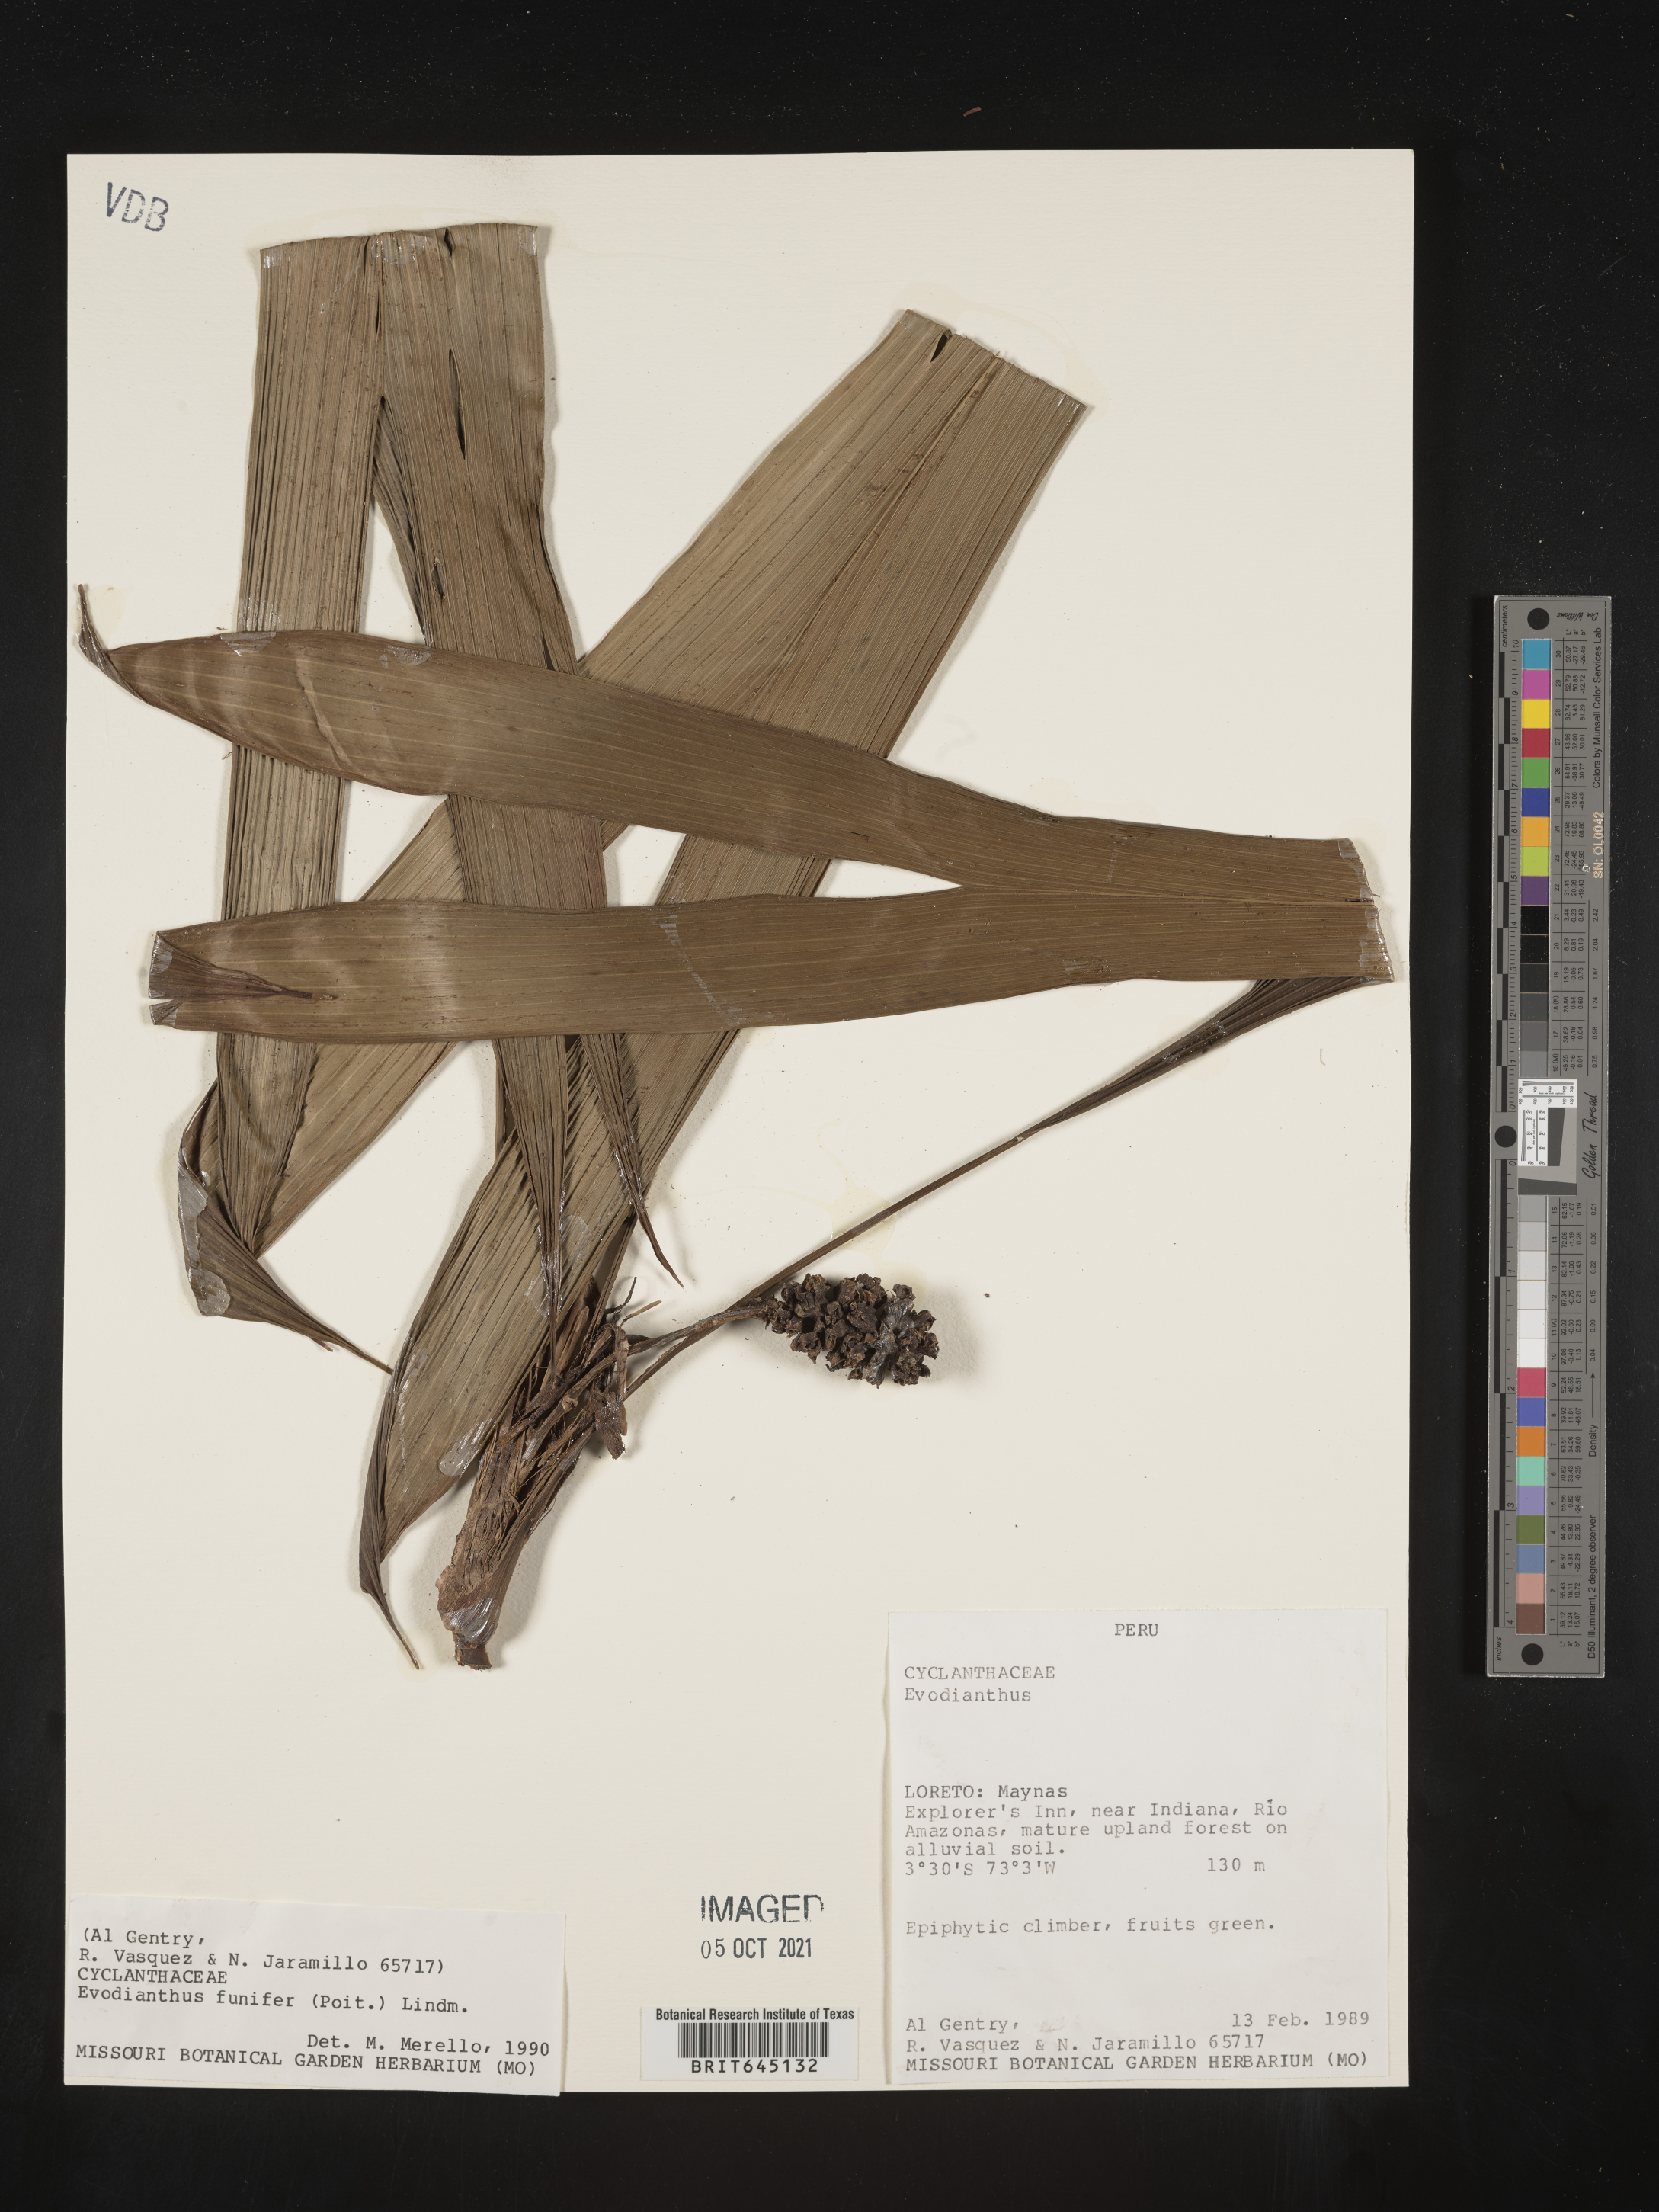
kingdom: Plantae
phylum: Tracheophyta
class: Liliopsida
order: Pandanales
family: Cyclanthaceae
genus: Evodianthus
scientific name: Evodianthus funifer
